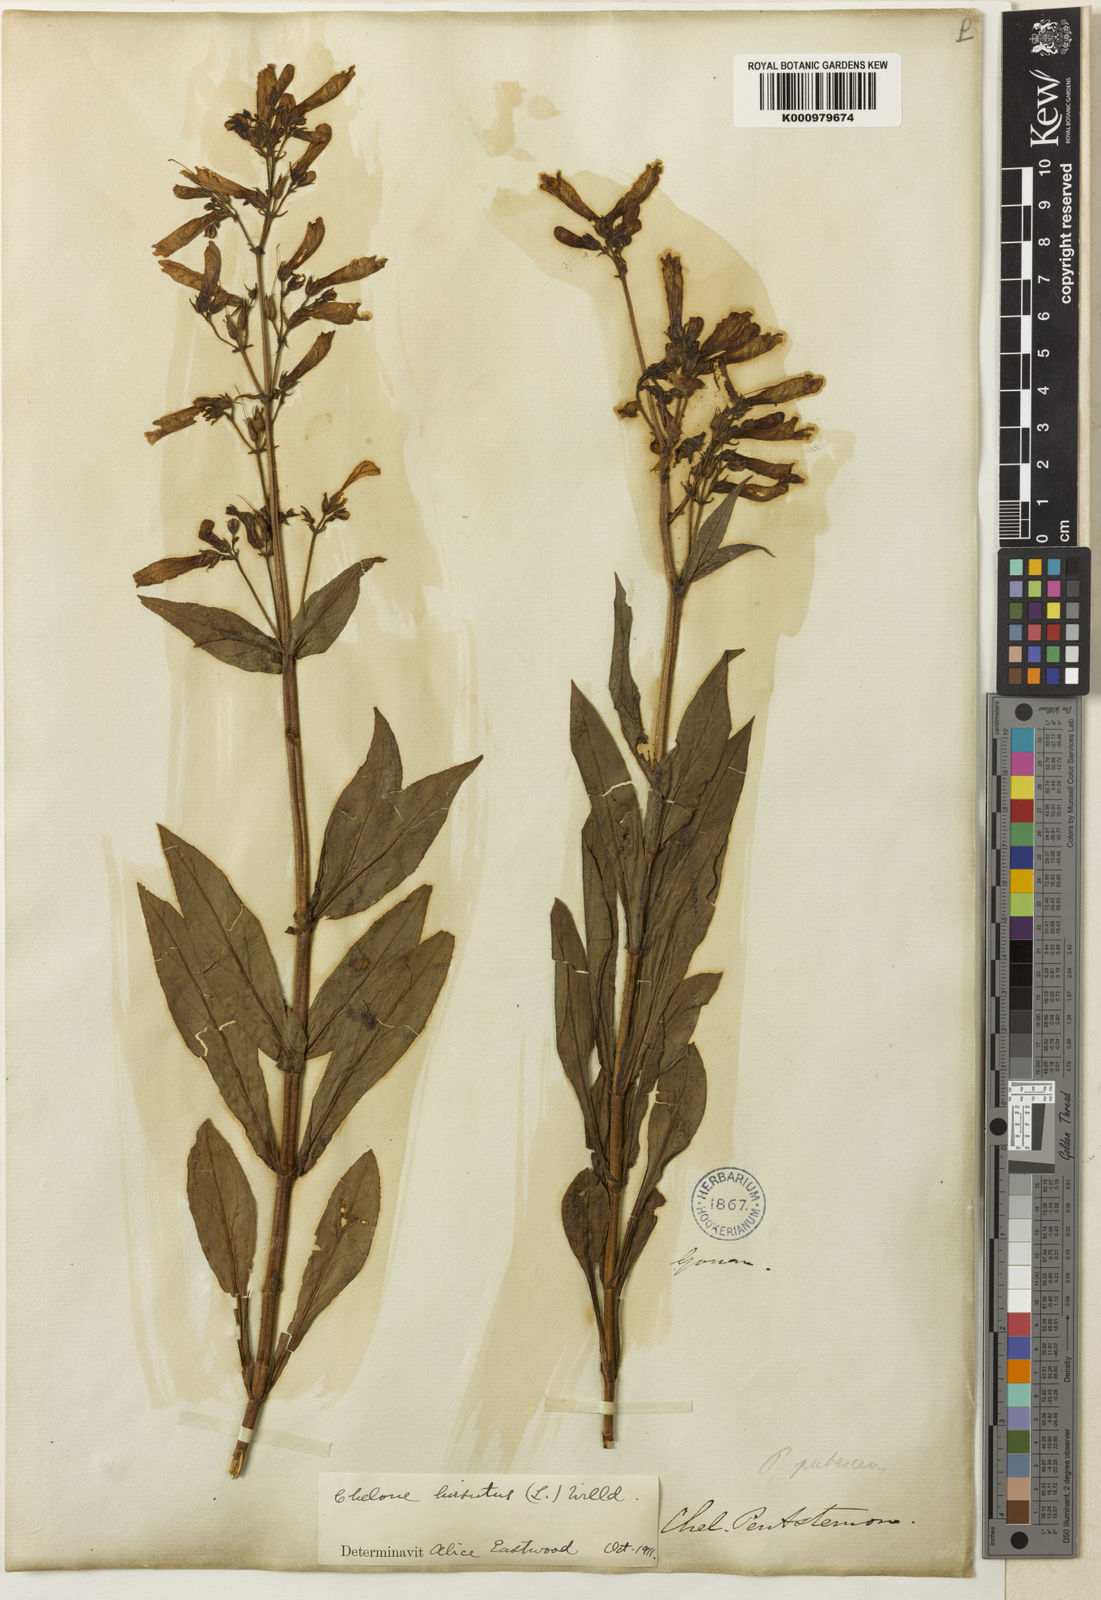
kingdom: Plantae
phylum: Tracheophyta
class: Magnoliopsida
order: Lamiales
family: Plantaginaceae
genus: Penstemon
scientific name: Penstemon hirsutus
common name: Hairy beardtongue
